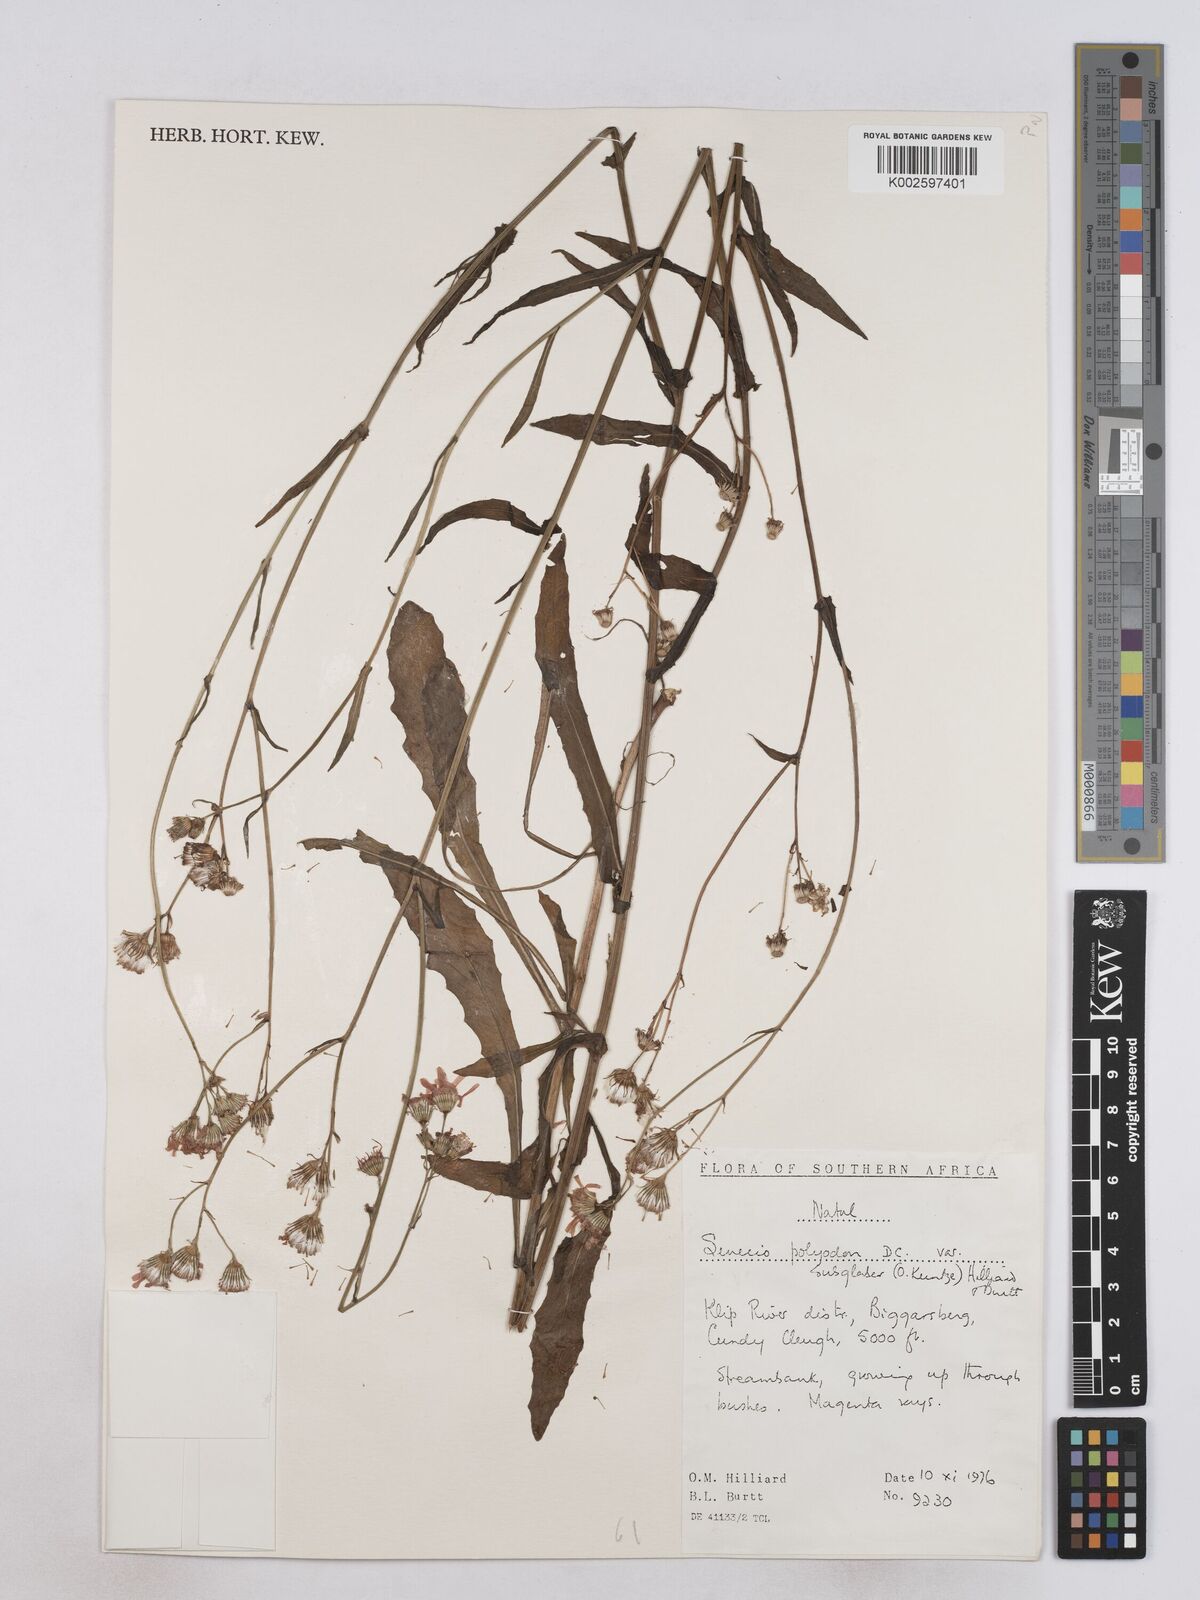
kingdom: Plantae
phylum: Tracheophyta
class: Magnoliopsida
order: Asterales
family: Asteraceae
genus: Senecio
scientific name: Senecio polyodon
